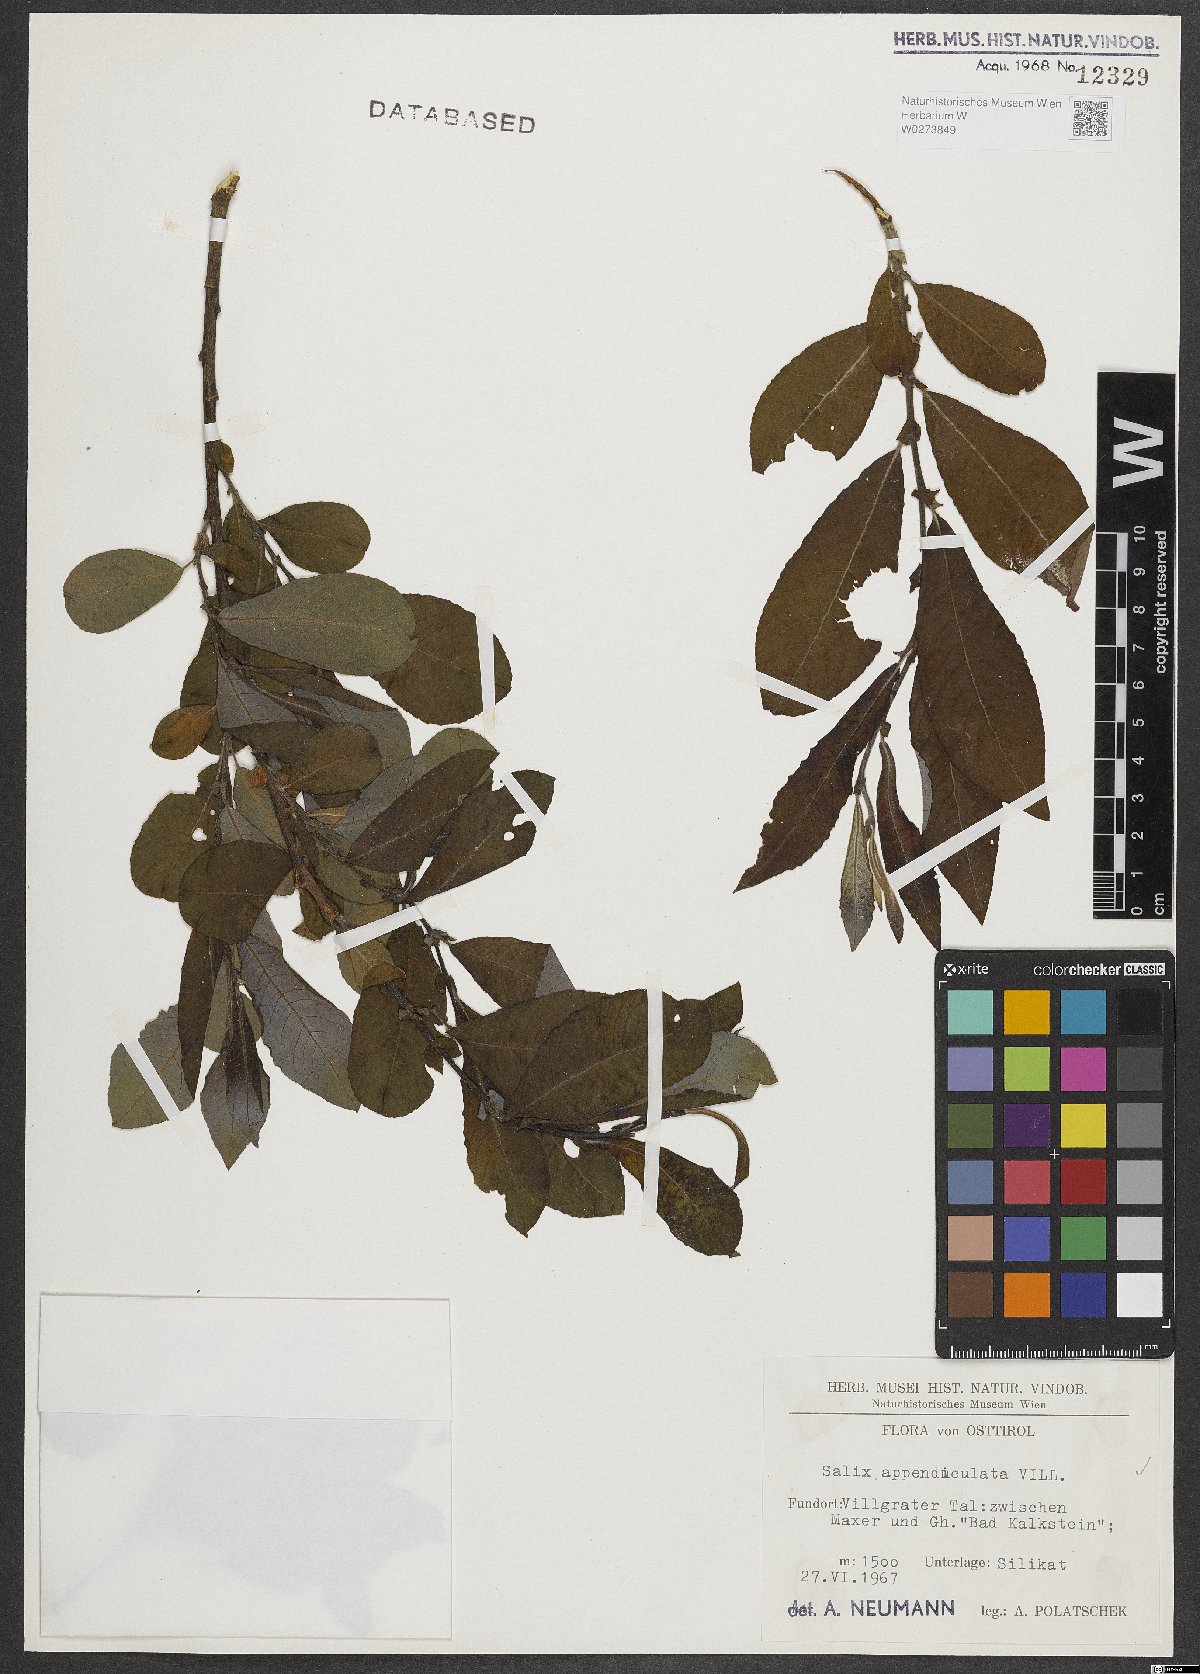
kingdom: Plantae
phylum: Tracheophyta
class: Magnoliopsida
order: Malpighiales
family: Salicaceae
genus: Salix
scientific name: Salix appendiculata
